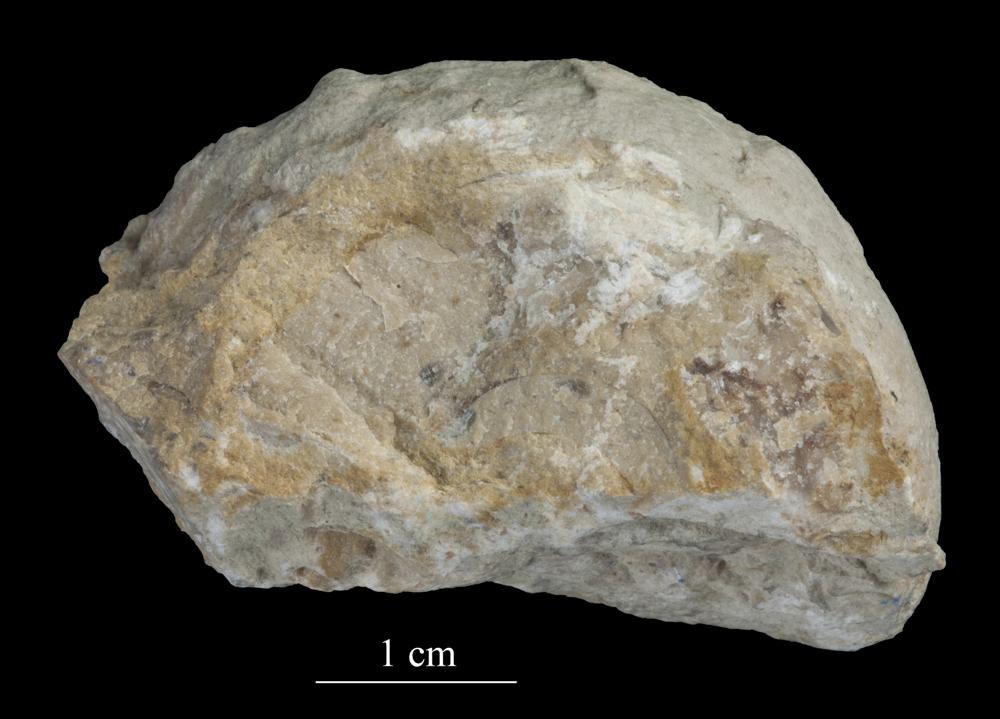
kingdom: Animalia
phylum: Mollusca
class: Gastropoda
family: Lesueurillidae
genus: Mestoronema
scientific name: Mestoronema Euomphalus marginalis
